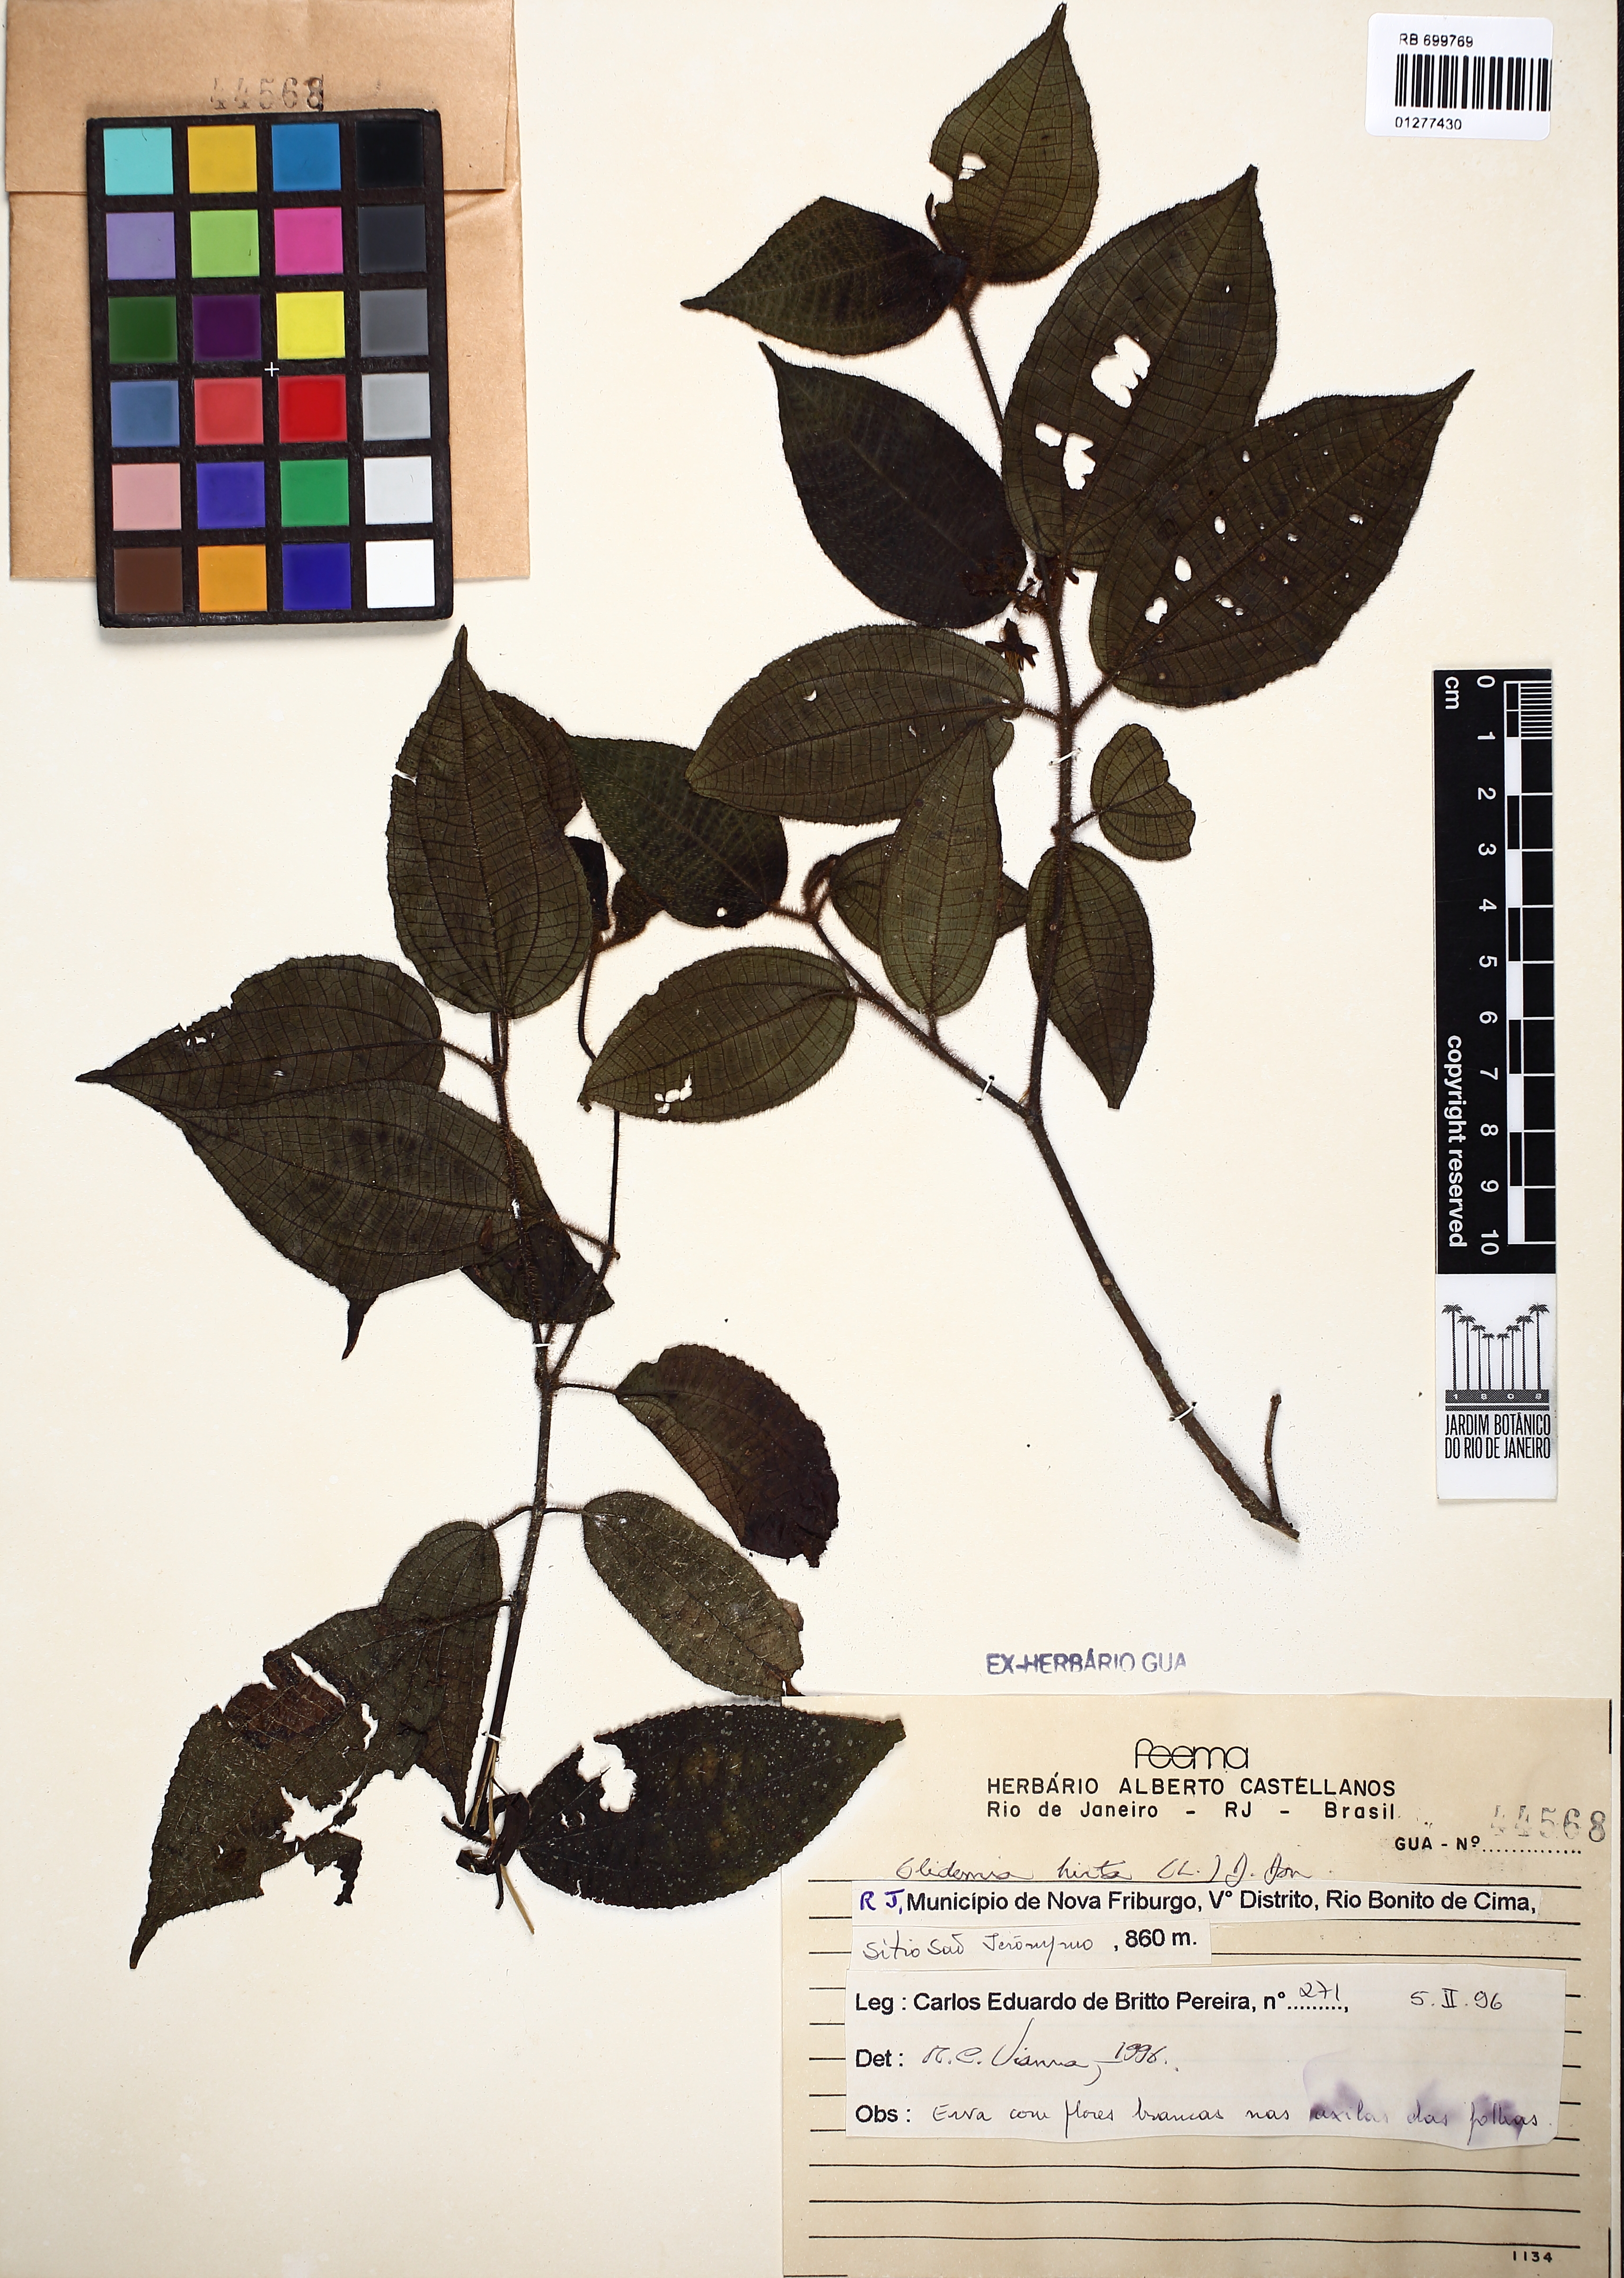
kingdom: Plantae
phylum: Tracheophyta
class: Magnoliopsida
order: Myrtales
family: Melastomataceae
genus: Miconia
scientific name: Miconia crenata
